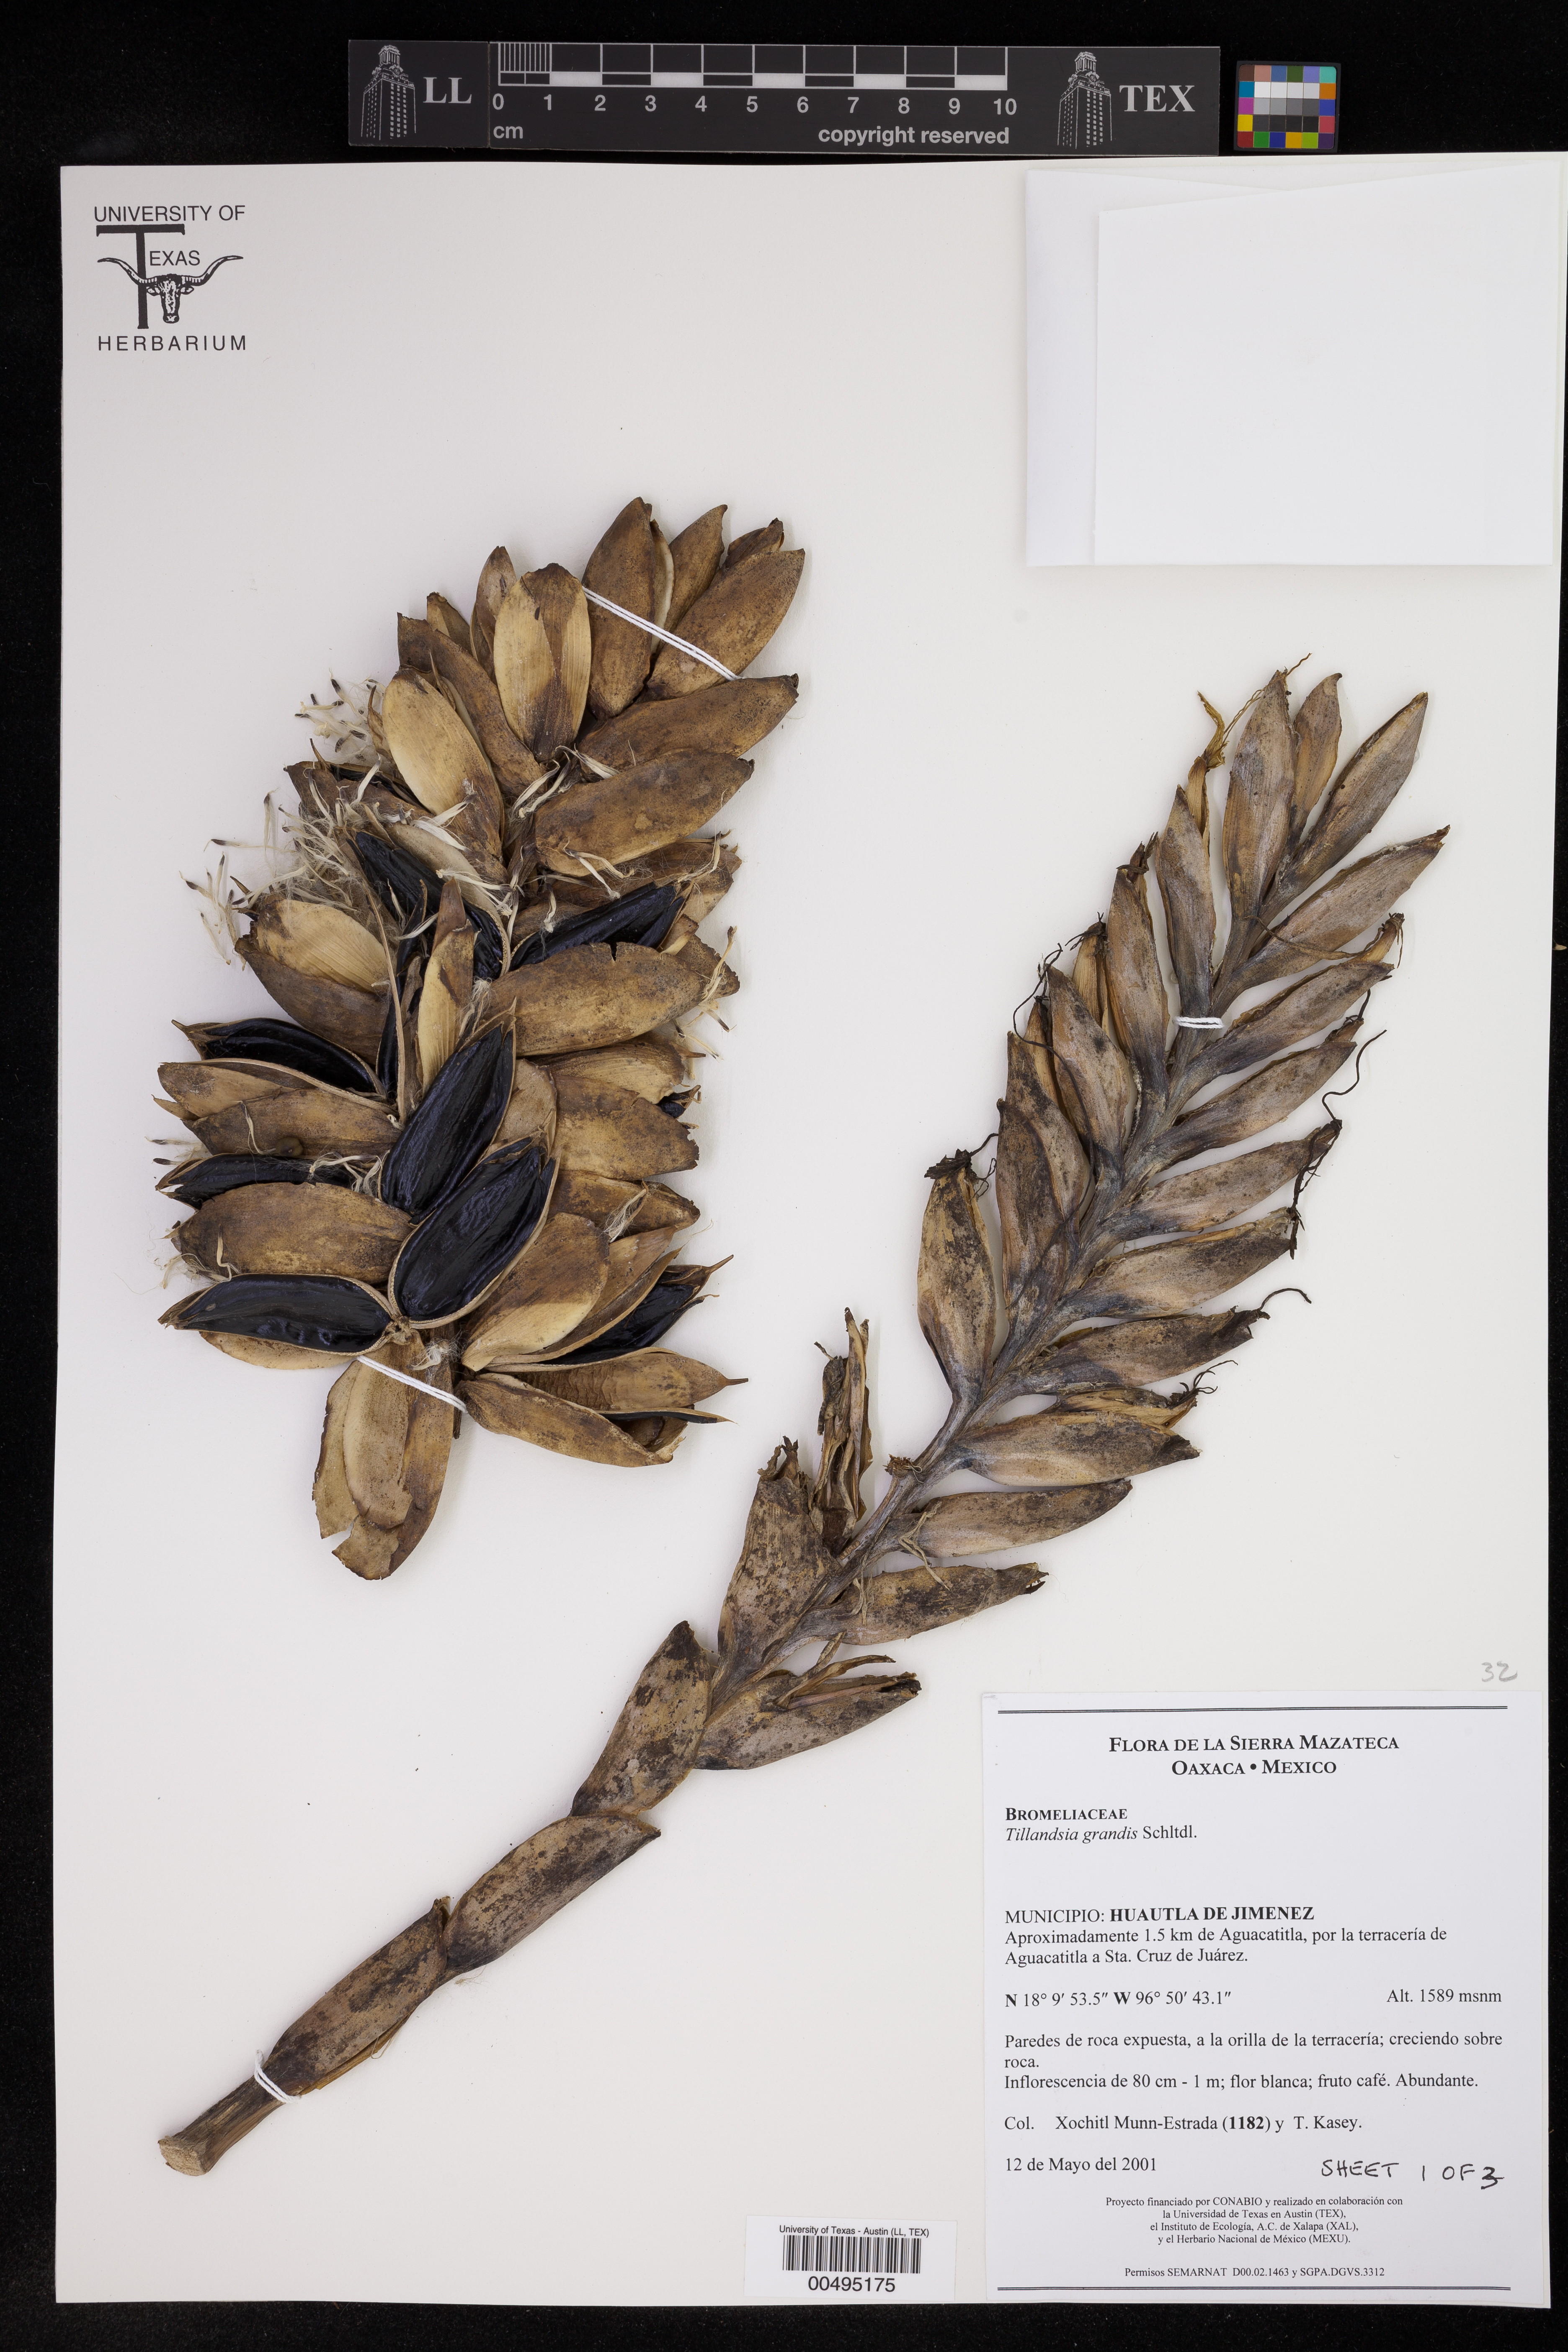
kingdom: Plantae
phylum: Tracheophyta
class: Liliopsida
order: Poales
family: Bromeliaceae
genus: Pseudalcantarea
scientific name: Pseudalcantarea grandis
